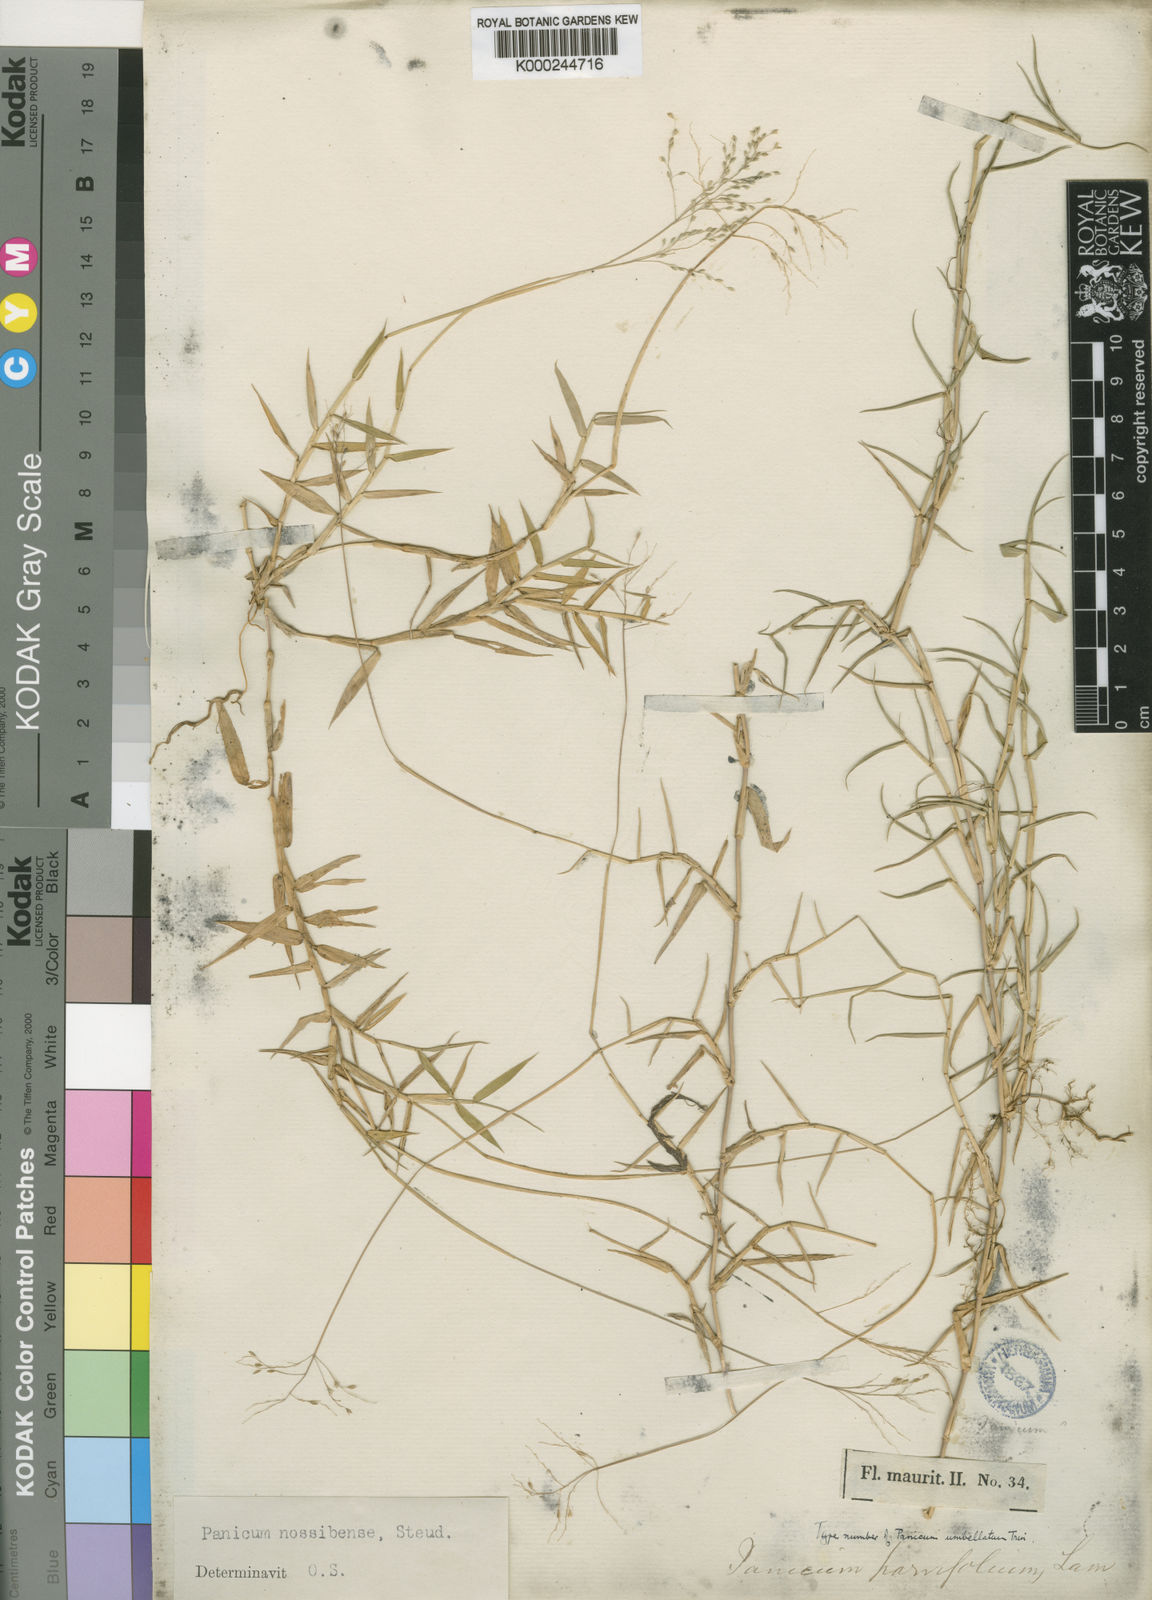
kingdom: Plantae
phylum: Tracheophyta
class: Liliopsida
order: Poales
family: Poaceae
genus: Urochloa
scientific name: Urochloa Brachiaria umbellata
